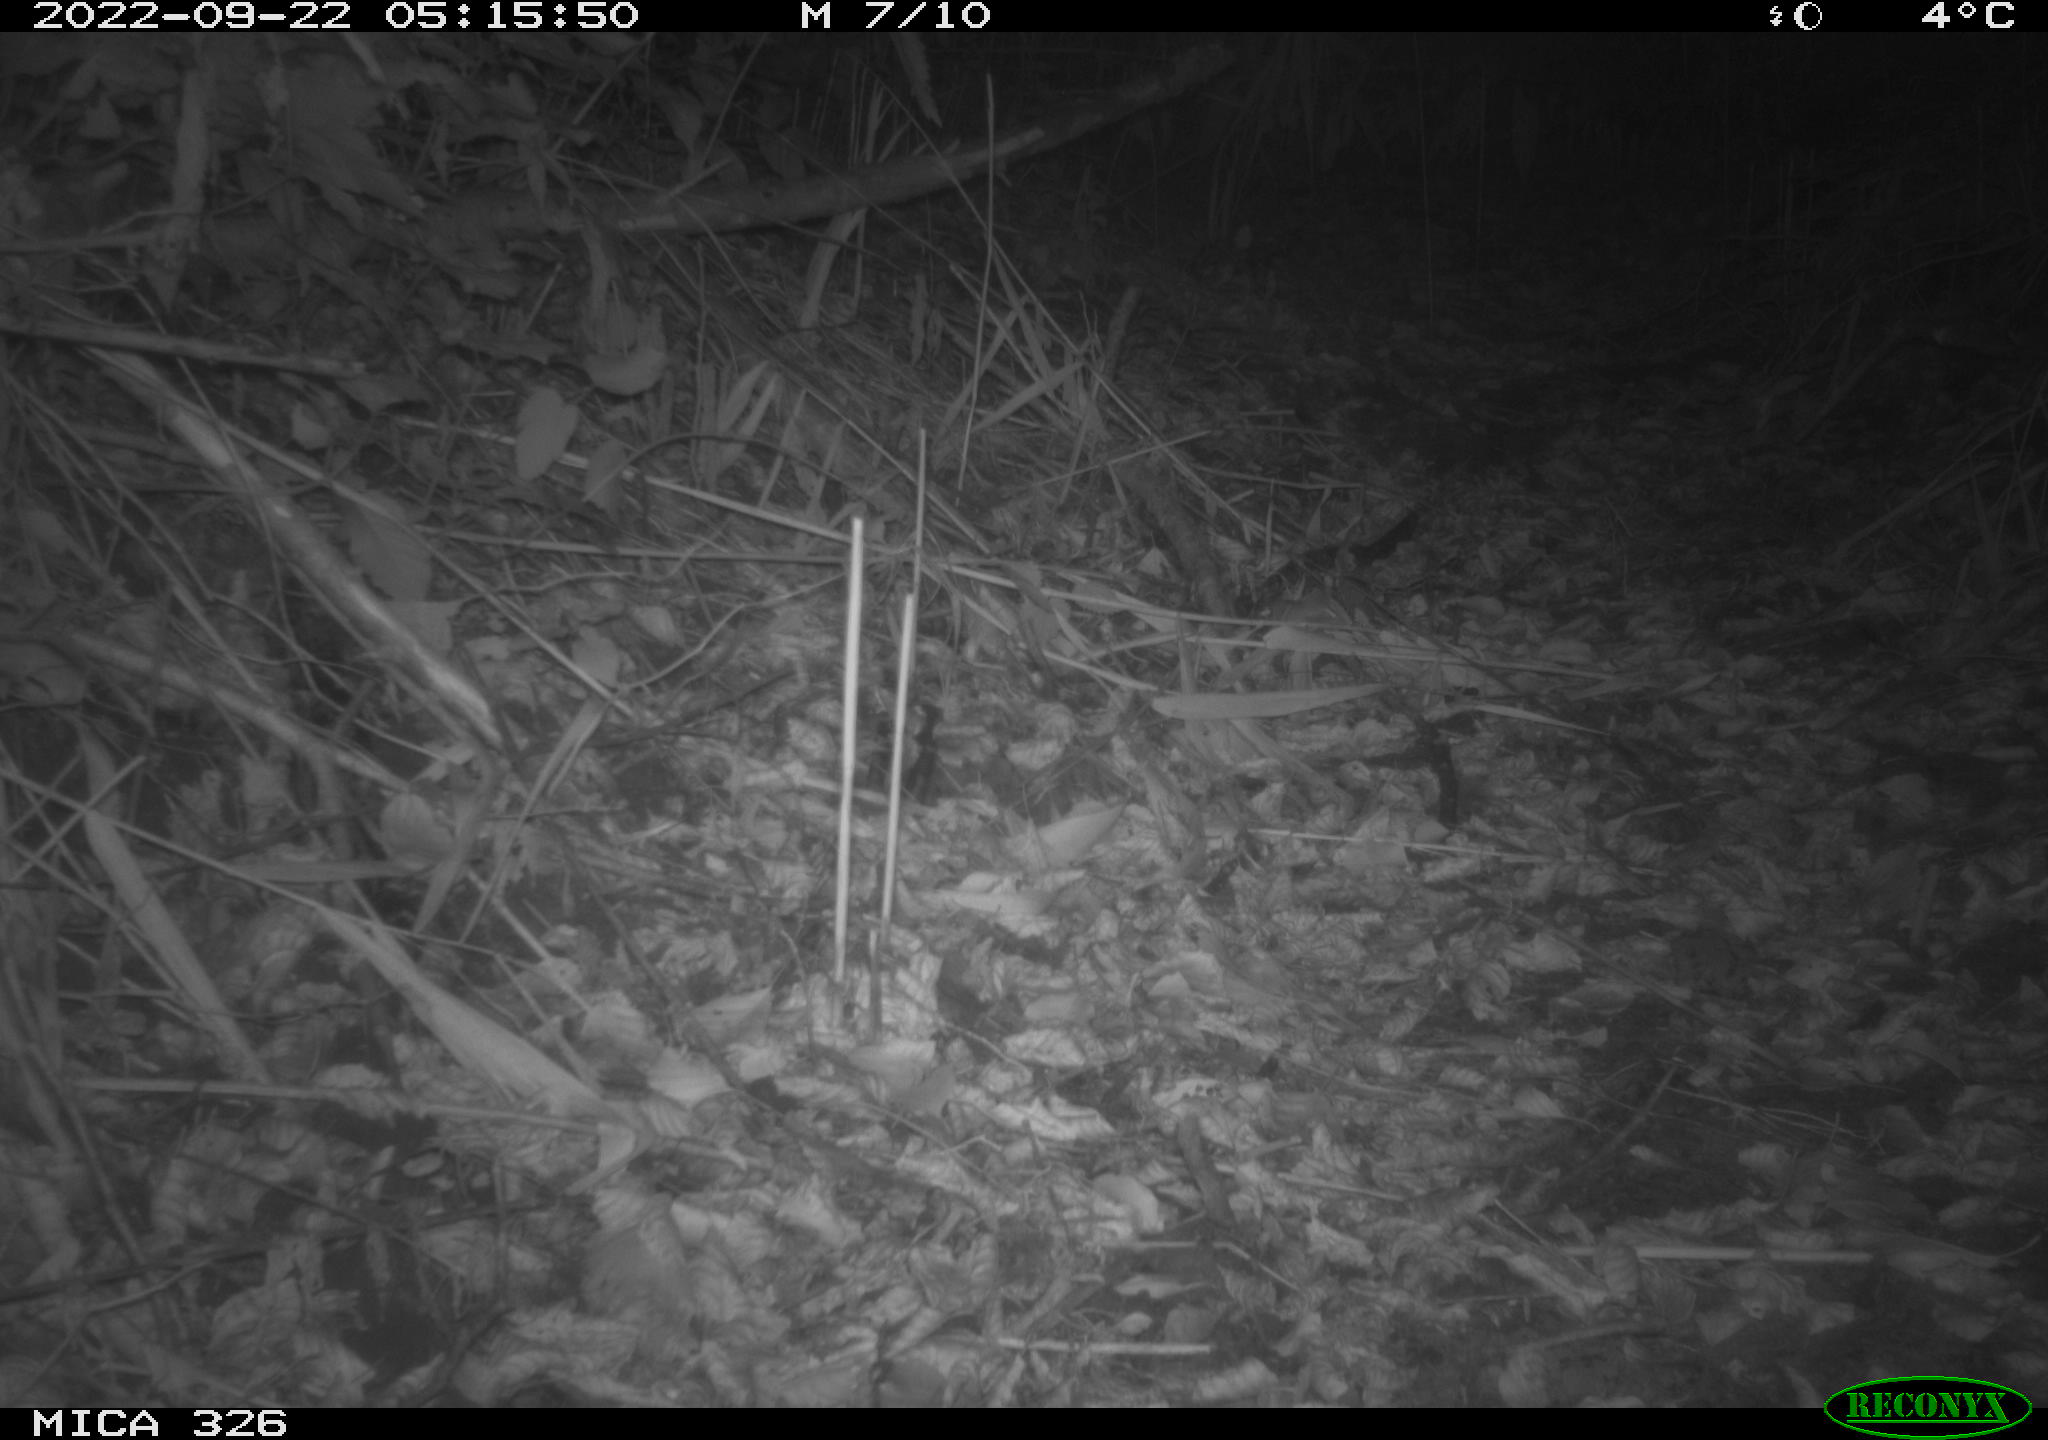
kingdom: Animalia
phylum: Chordata
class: Mammalia
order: Rodentia
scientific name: Rodentia
